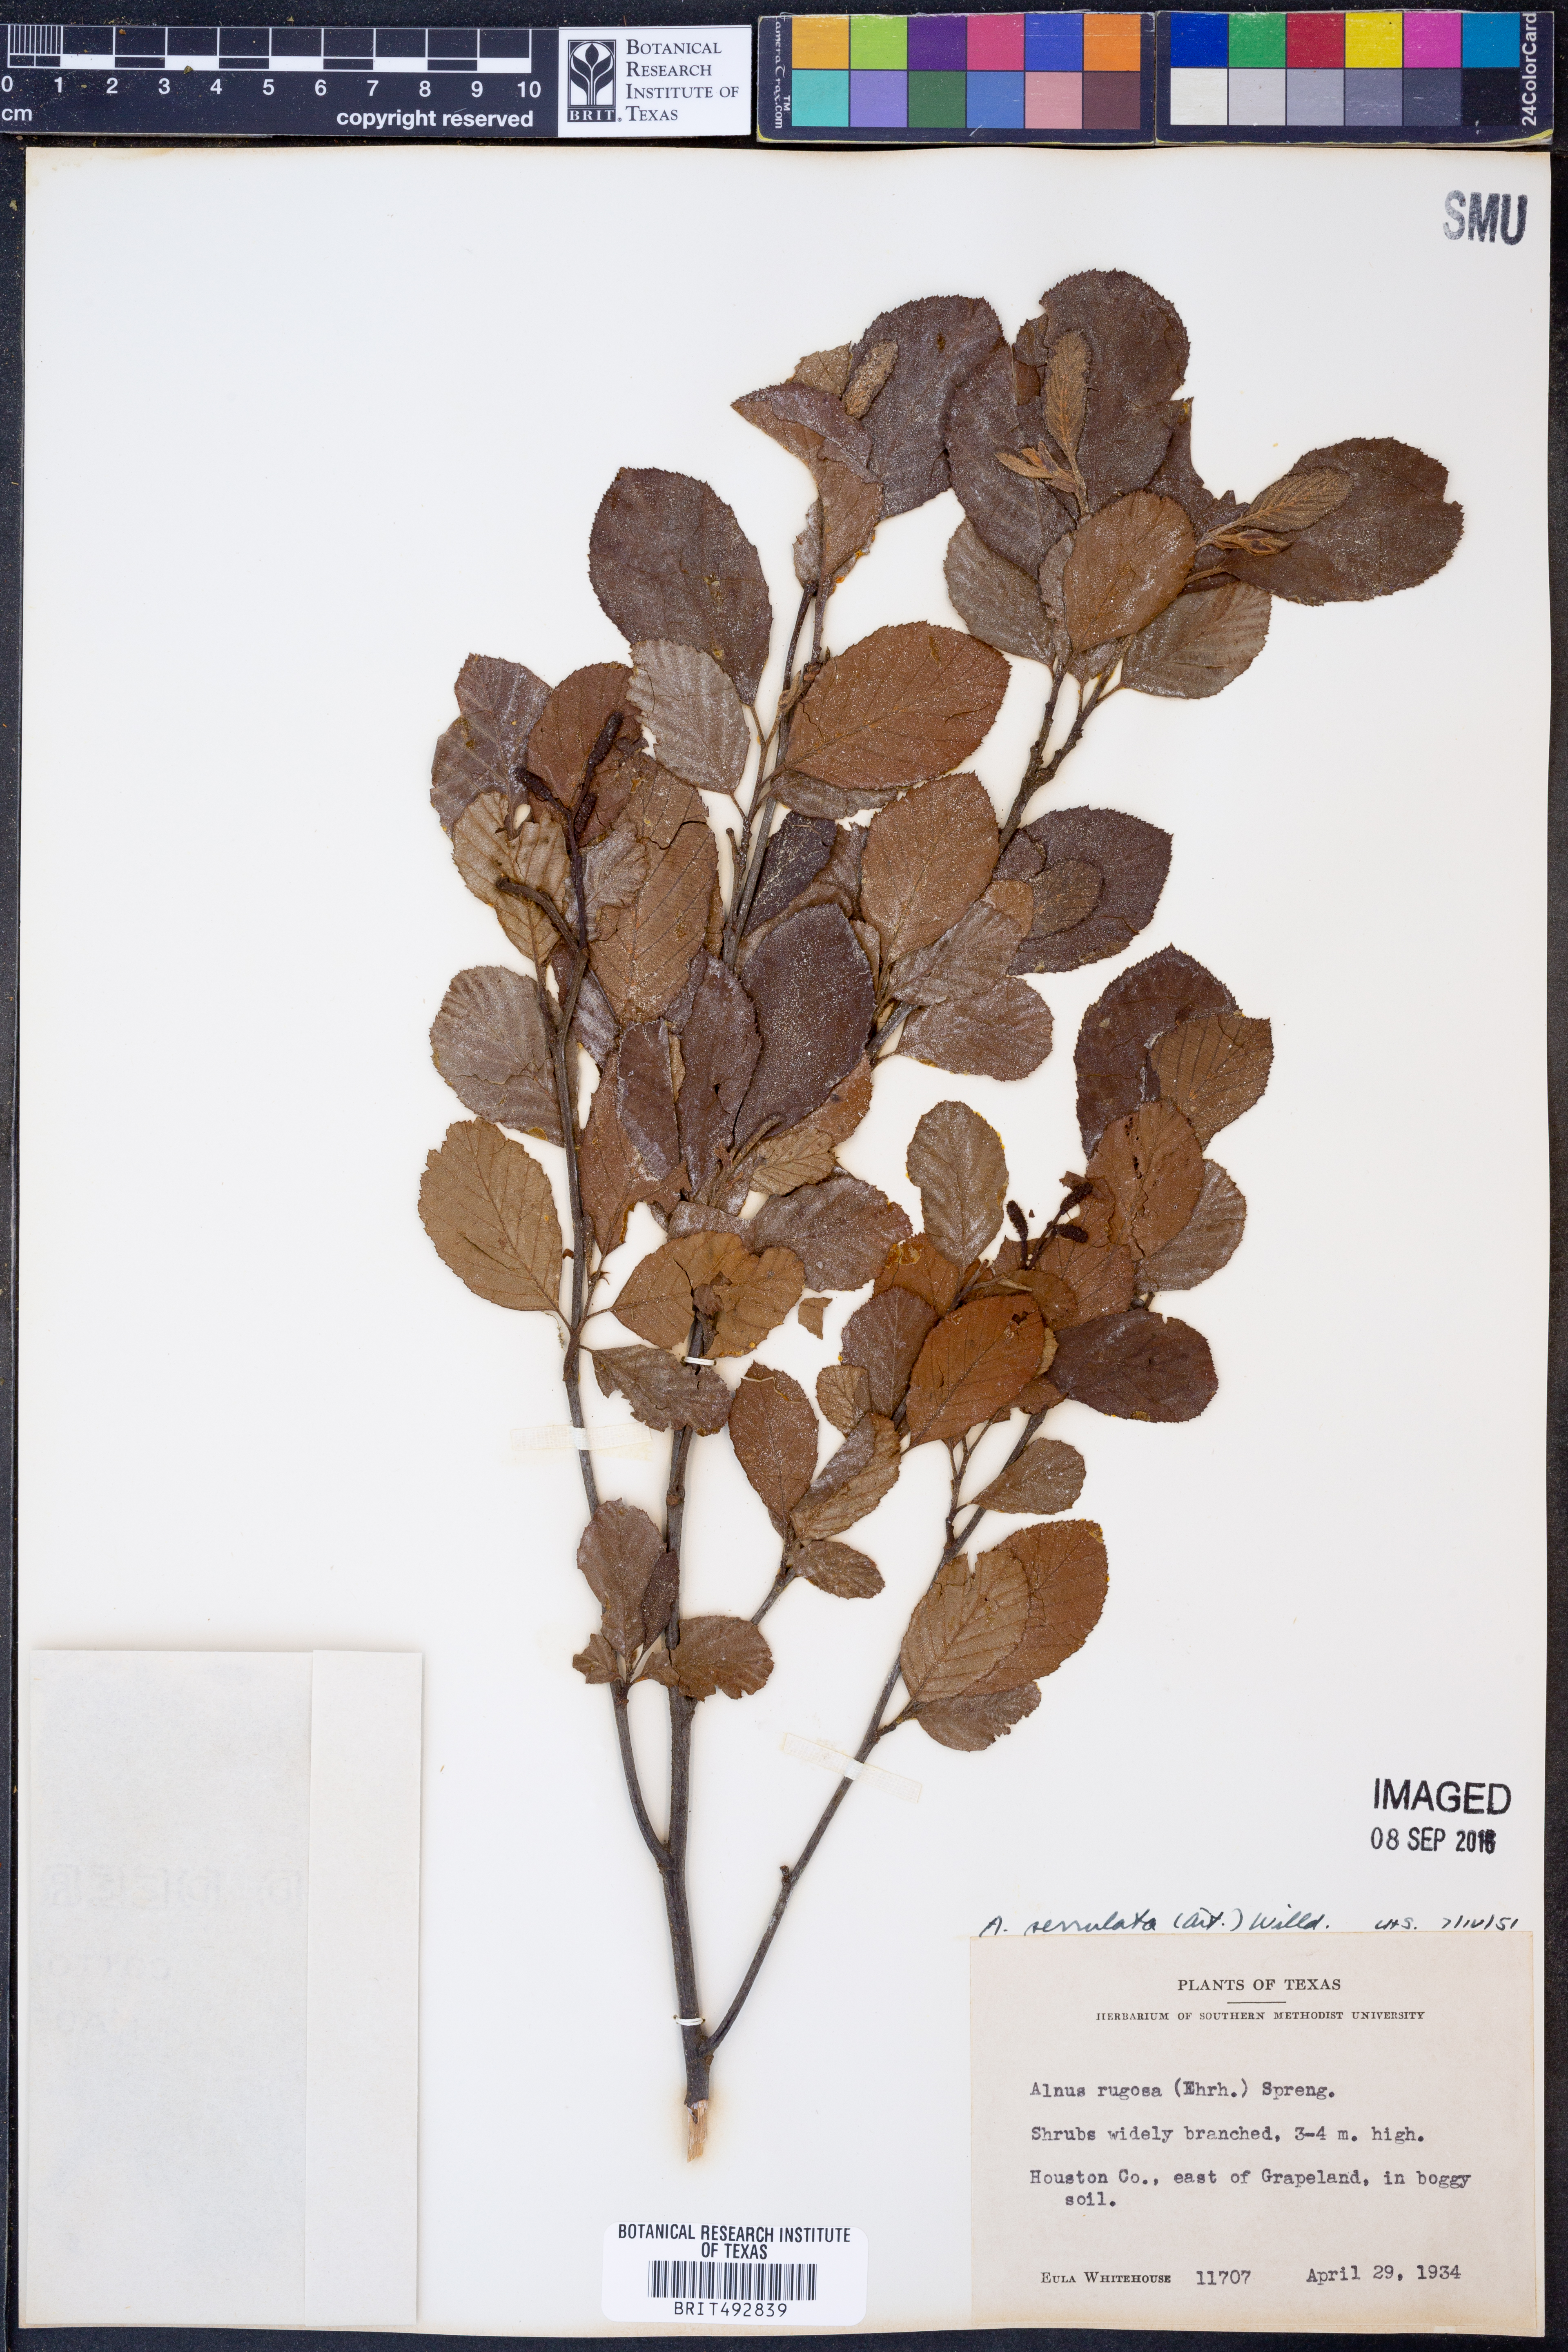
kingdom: Plantae
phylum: Tracheophyta
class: Magnoliopsida
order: Fagales
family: Betulaceae
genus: Alnus
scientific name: Alnus serrulata
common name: Hazel alder
